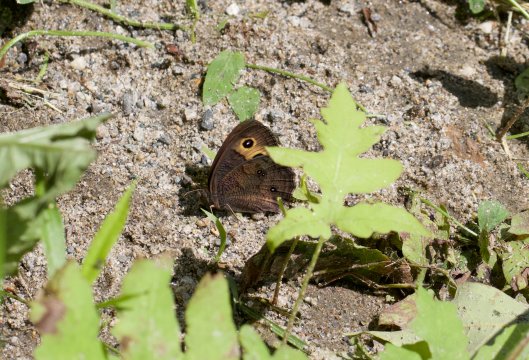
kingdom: Animalia
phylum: Arthropoda
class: Insecta
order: Lepidoptera
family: Nymphalidae
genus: Cercyonis
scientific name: Cercyonis pegala
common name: Common Wood-Nymph
